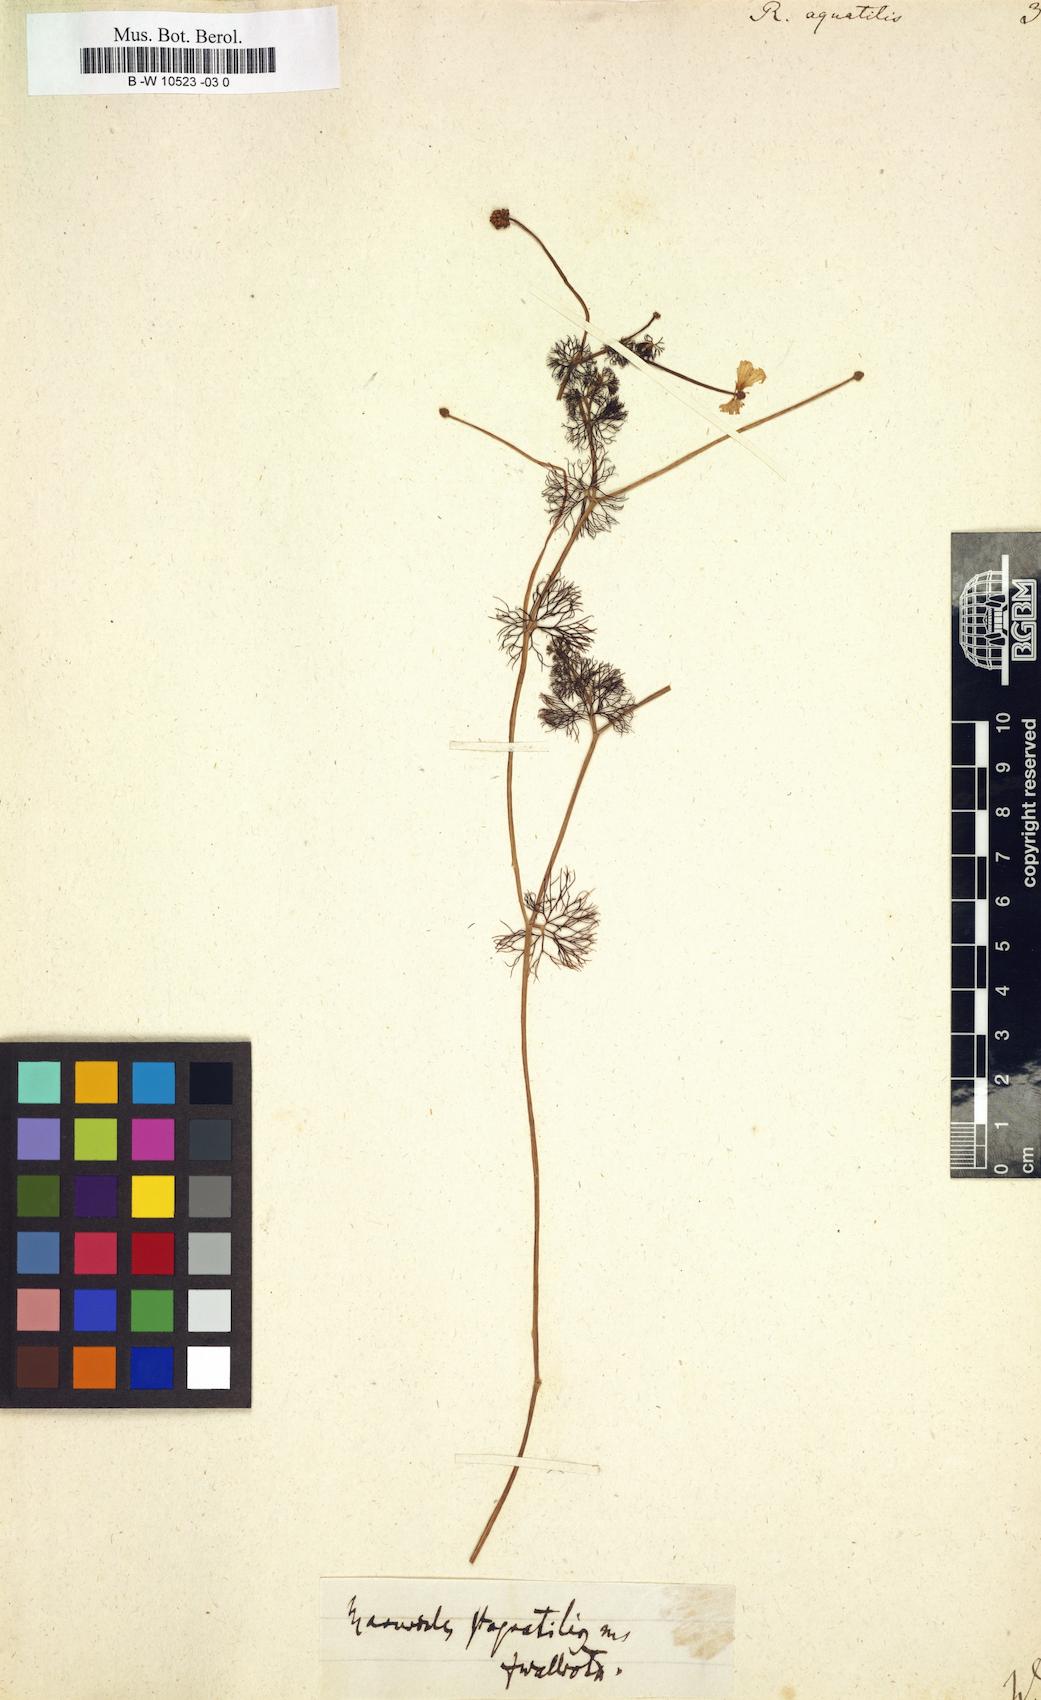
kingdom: Plantae
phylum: Tracheophyta
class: Magnoliopsida
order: Ranunculales
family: Ranunculaceae
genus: Ranunculus
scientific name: Ranunculus aquatilis
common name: Common water-crowfoot
